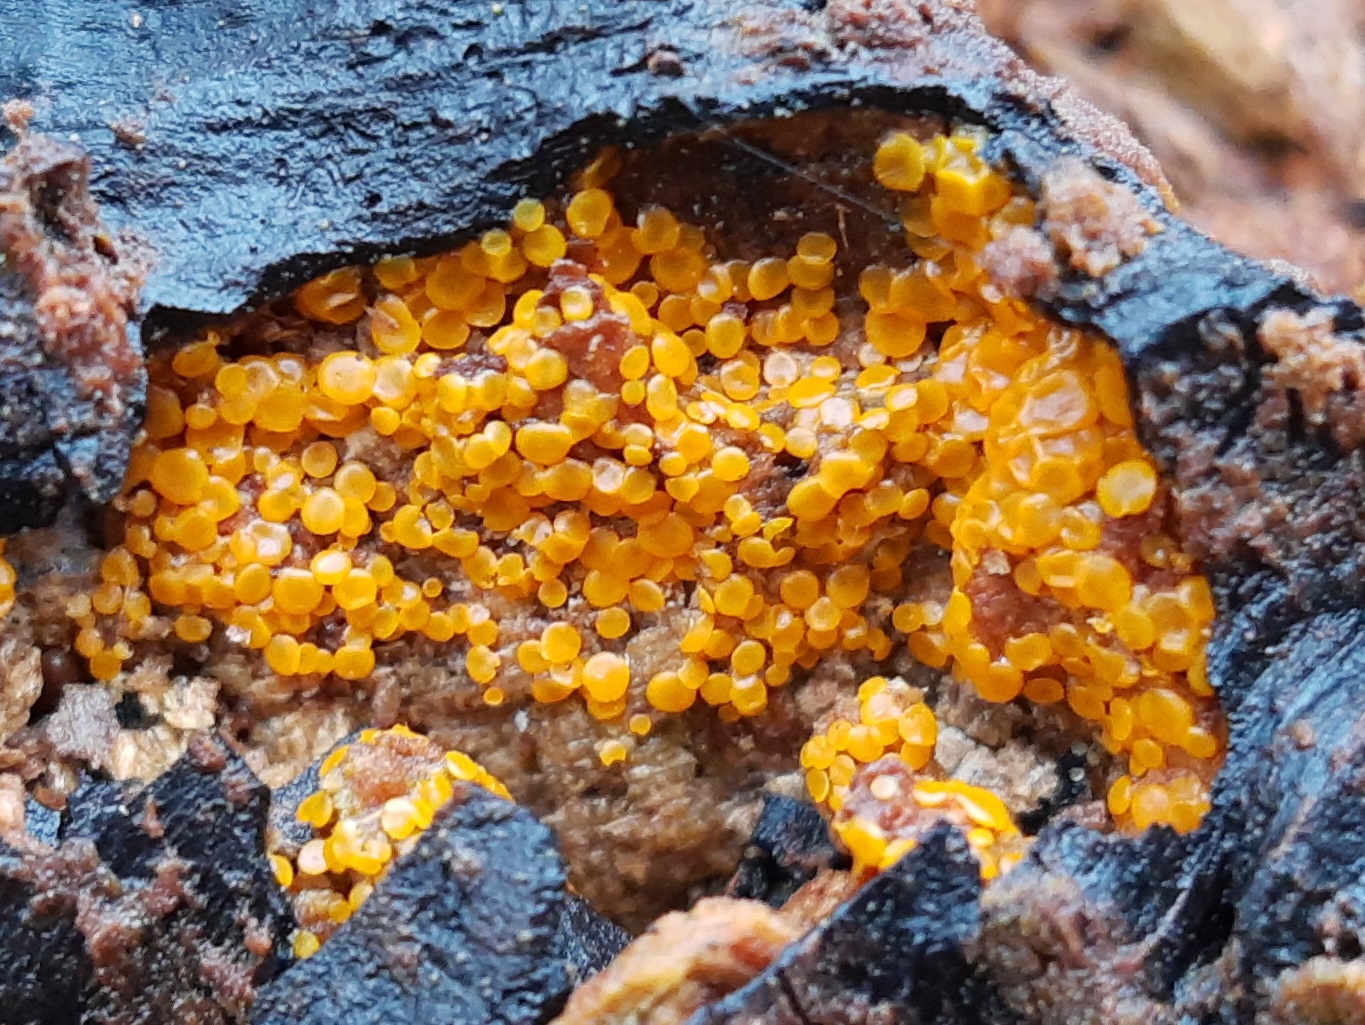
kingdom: Fungi
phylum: Ascomycota
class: Orbiliomycetes
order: Orbiliales
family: Orbiliaceae
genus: Orbilia
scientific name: Orbilia xanthostigma
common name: krumsporet voksskive
